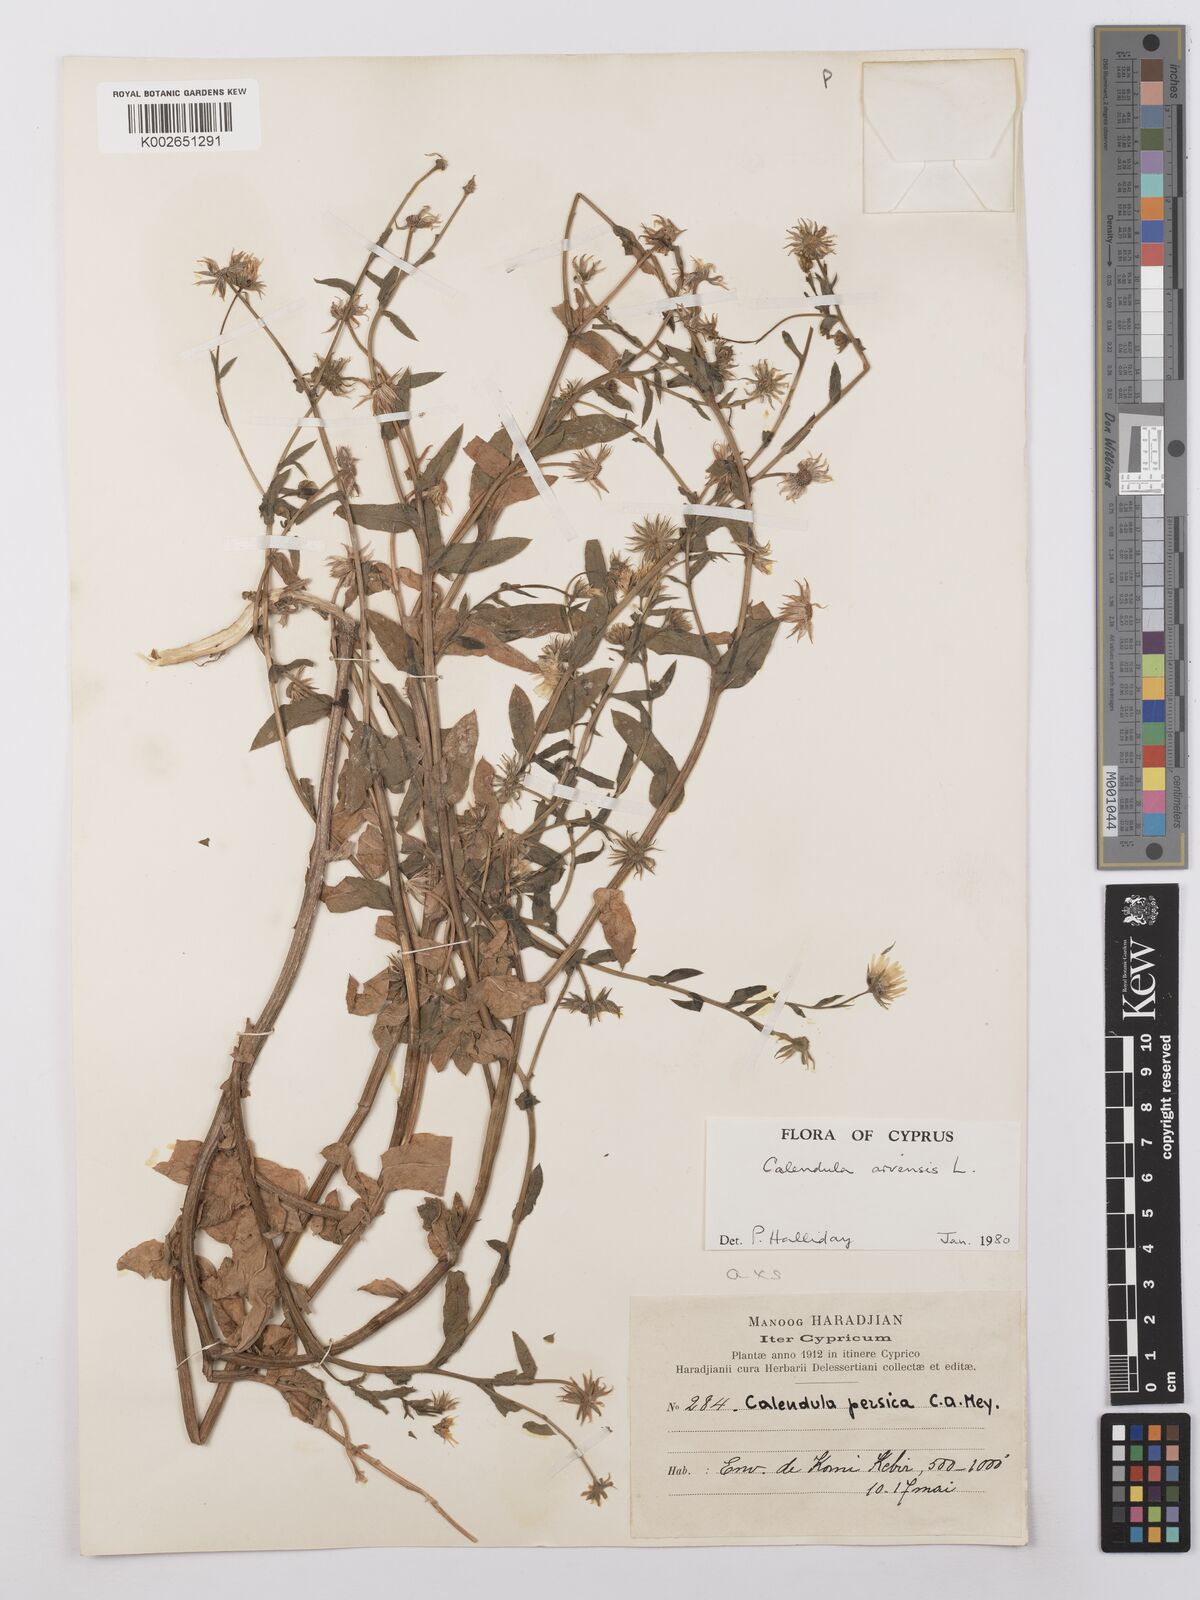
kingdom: Plantae
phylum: Tracheophyta
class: Magnoliopsida
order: Asterales
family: Asteraceae
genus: Calendula
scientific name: Calendula arvensis
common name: Field marigold
